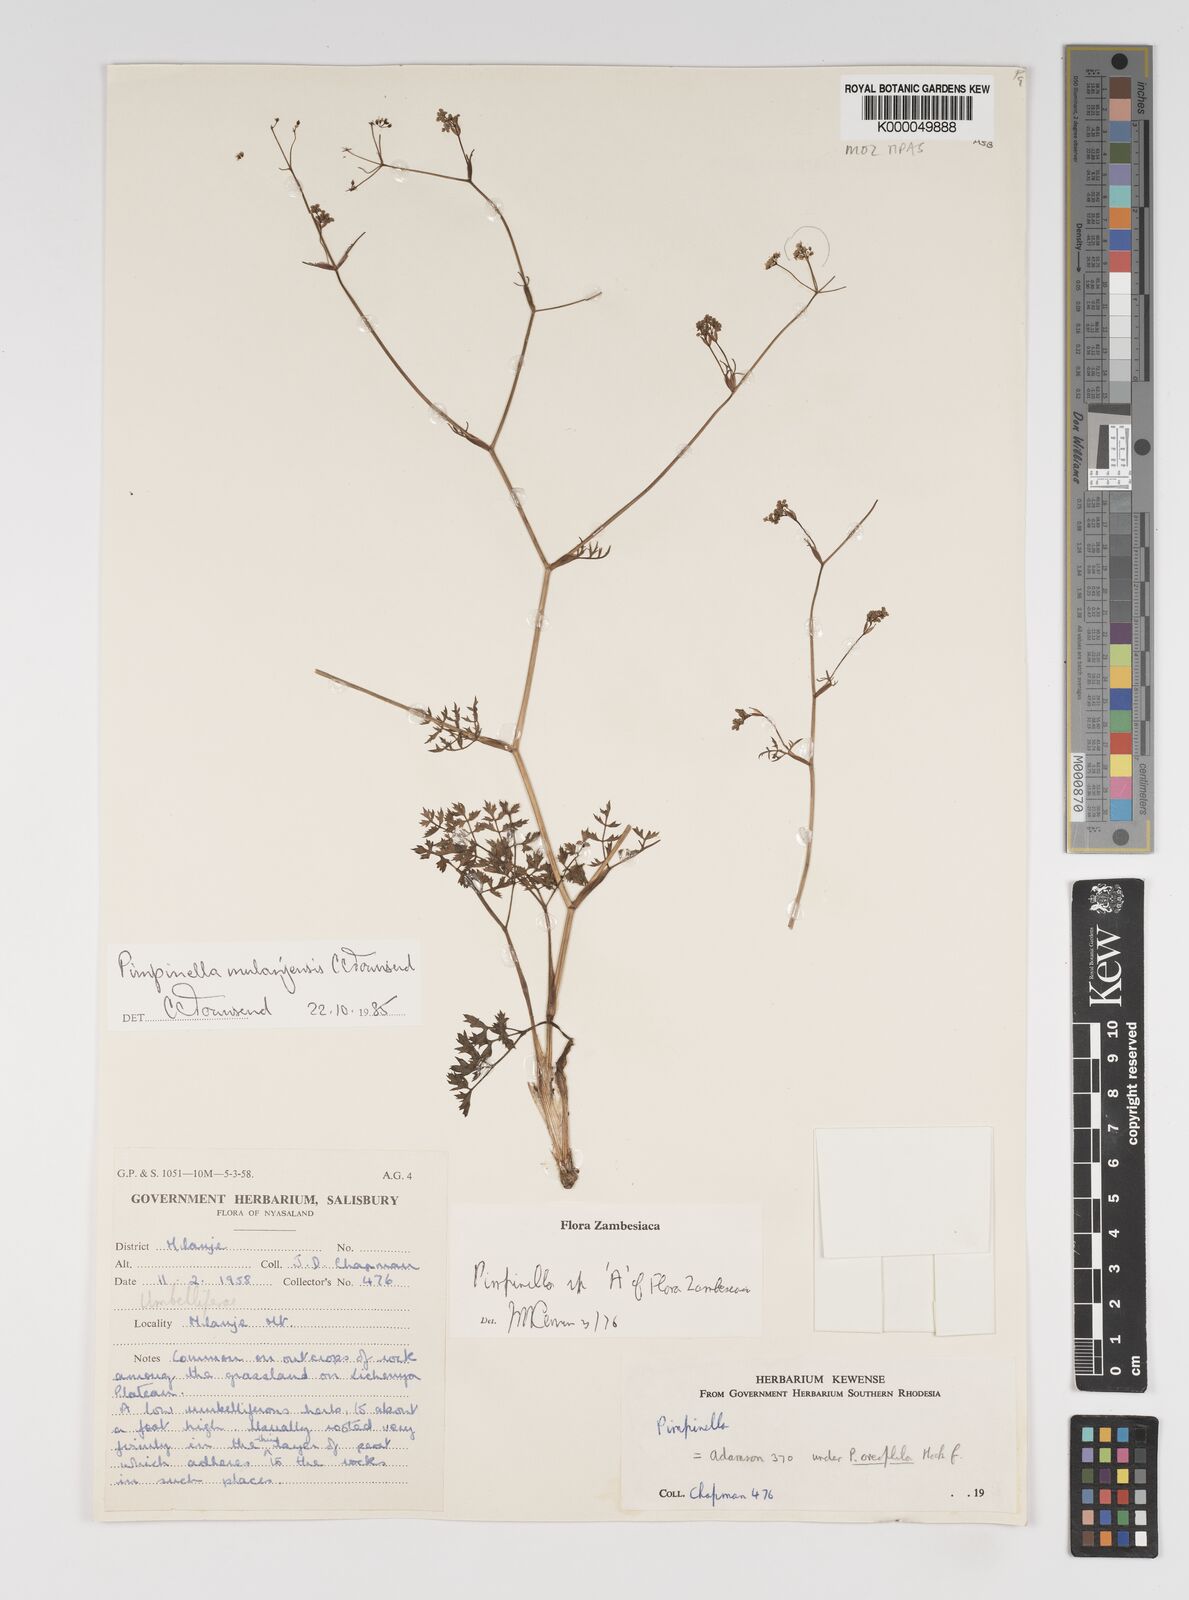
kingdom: Plantae
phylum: Tracheophyta
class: Magnoliopsida
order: Apiales
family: Apiaceae
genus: Pimpinella
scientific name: Pimpinella mulanjensis
